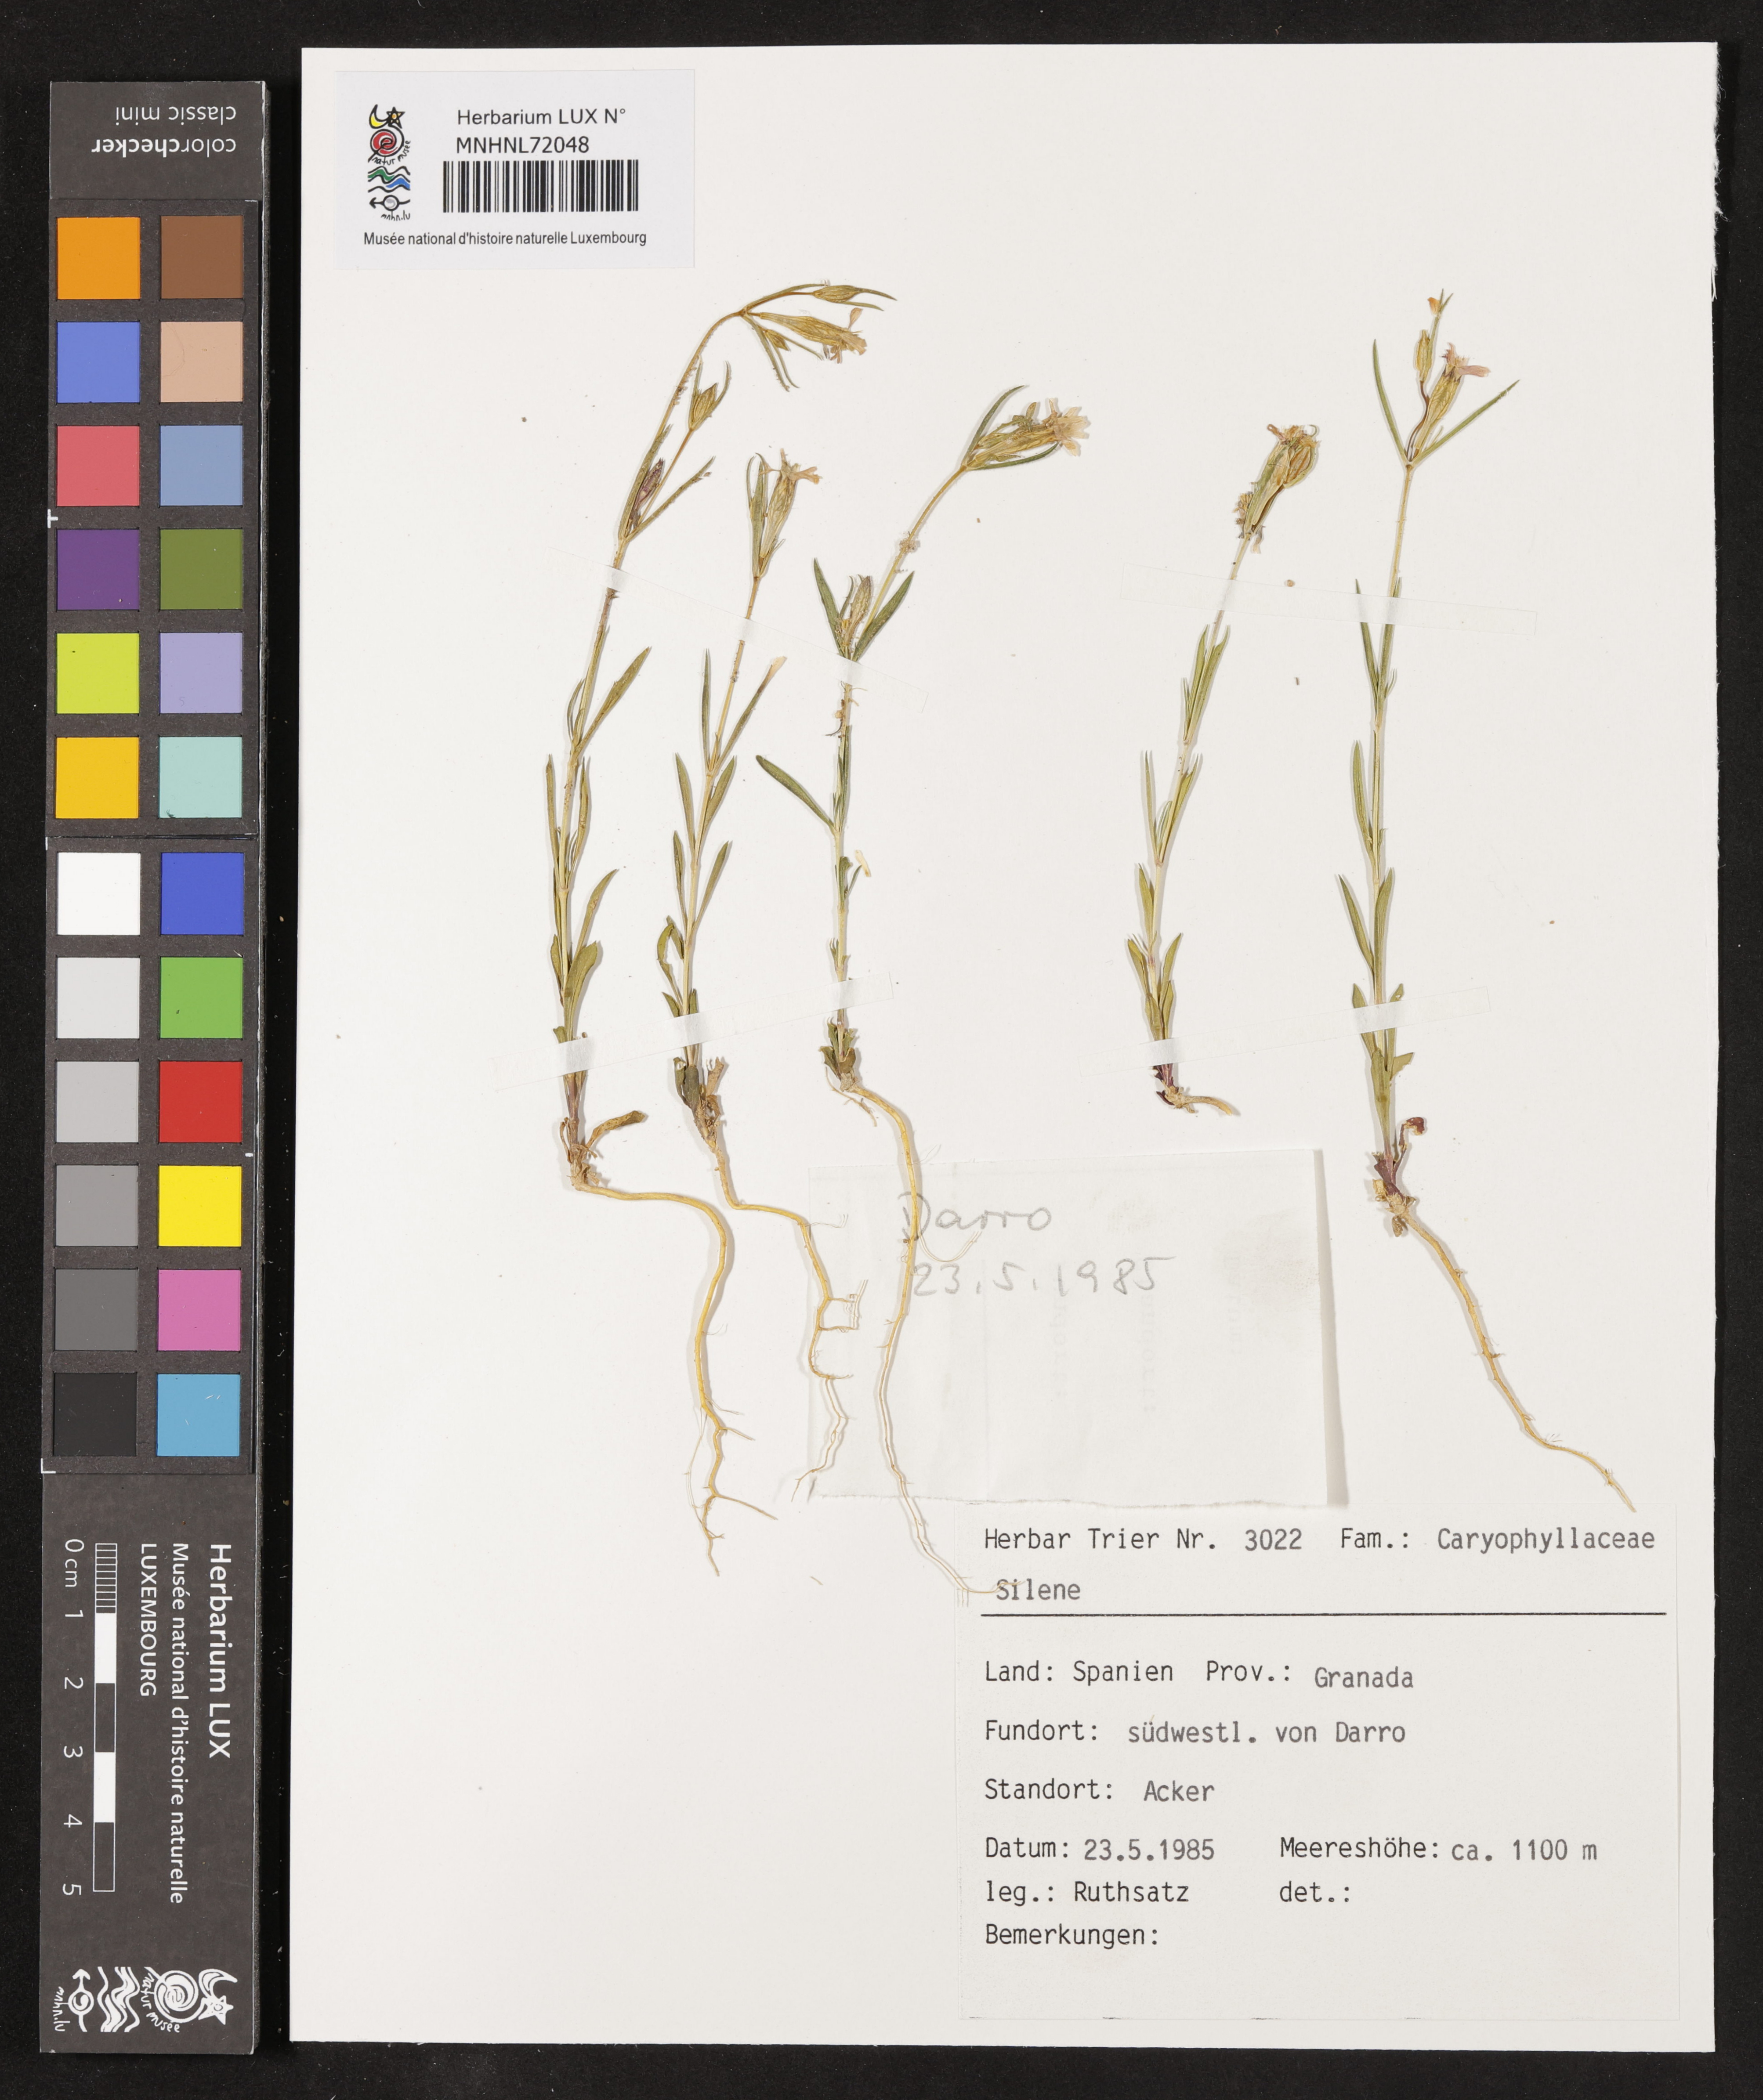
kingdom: Plantae
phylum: Tracheophyta
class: Magnoliopsida
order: Caryophyllales
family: Caryophyllaceae
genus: Silene
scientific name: Silene
